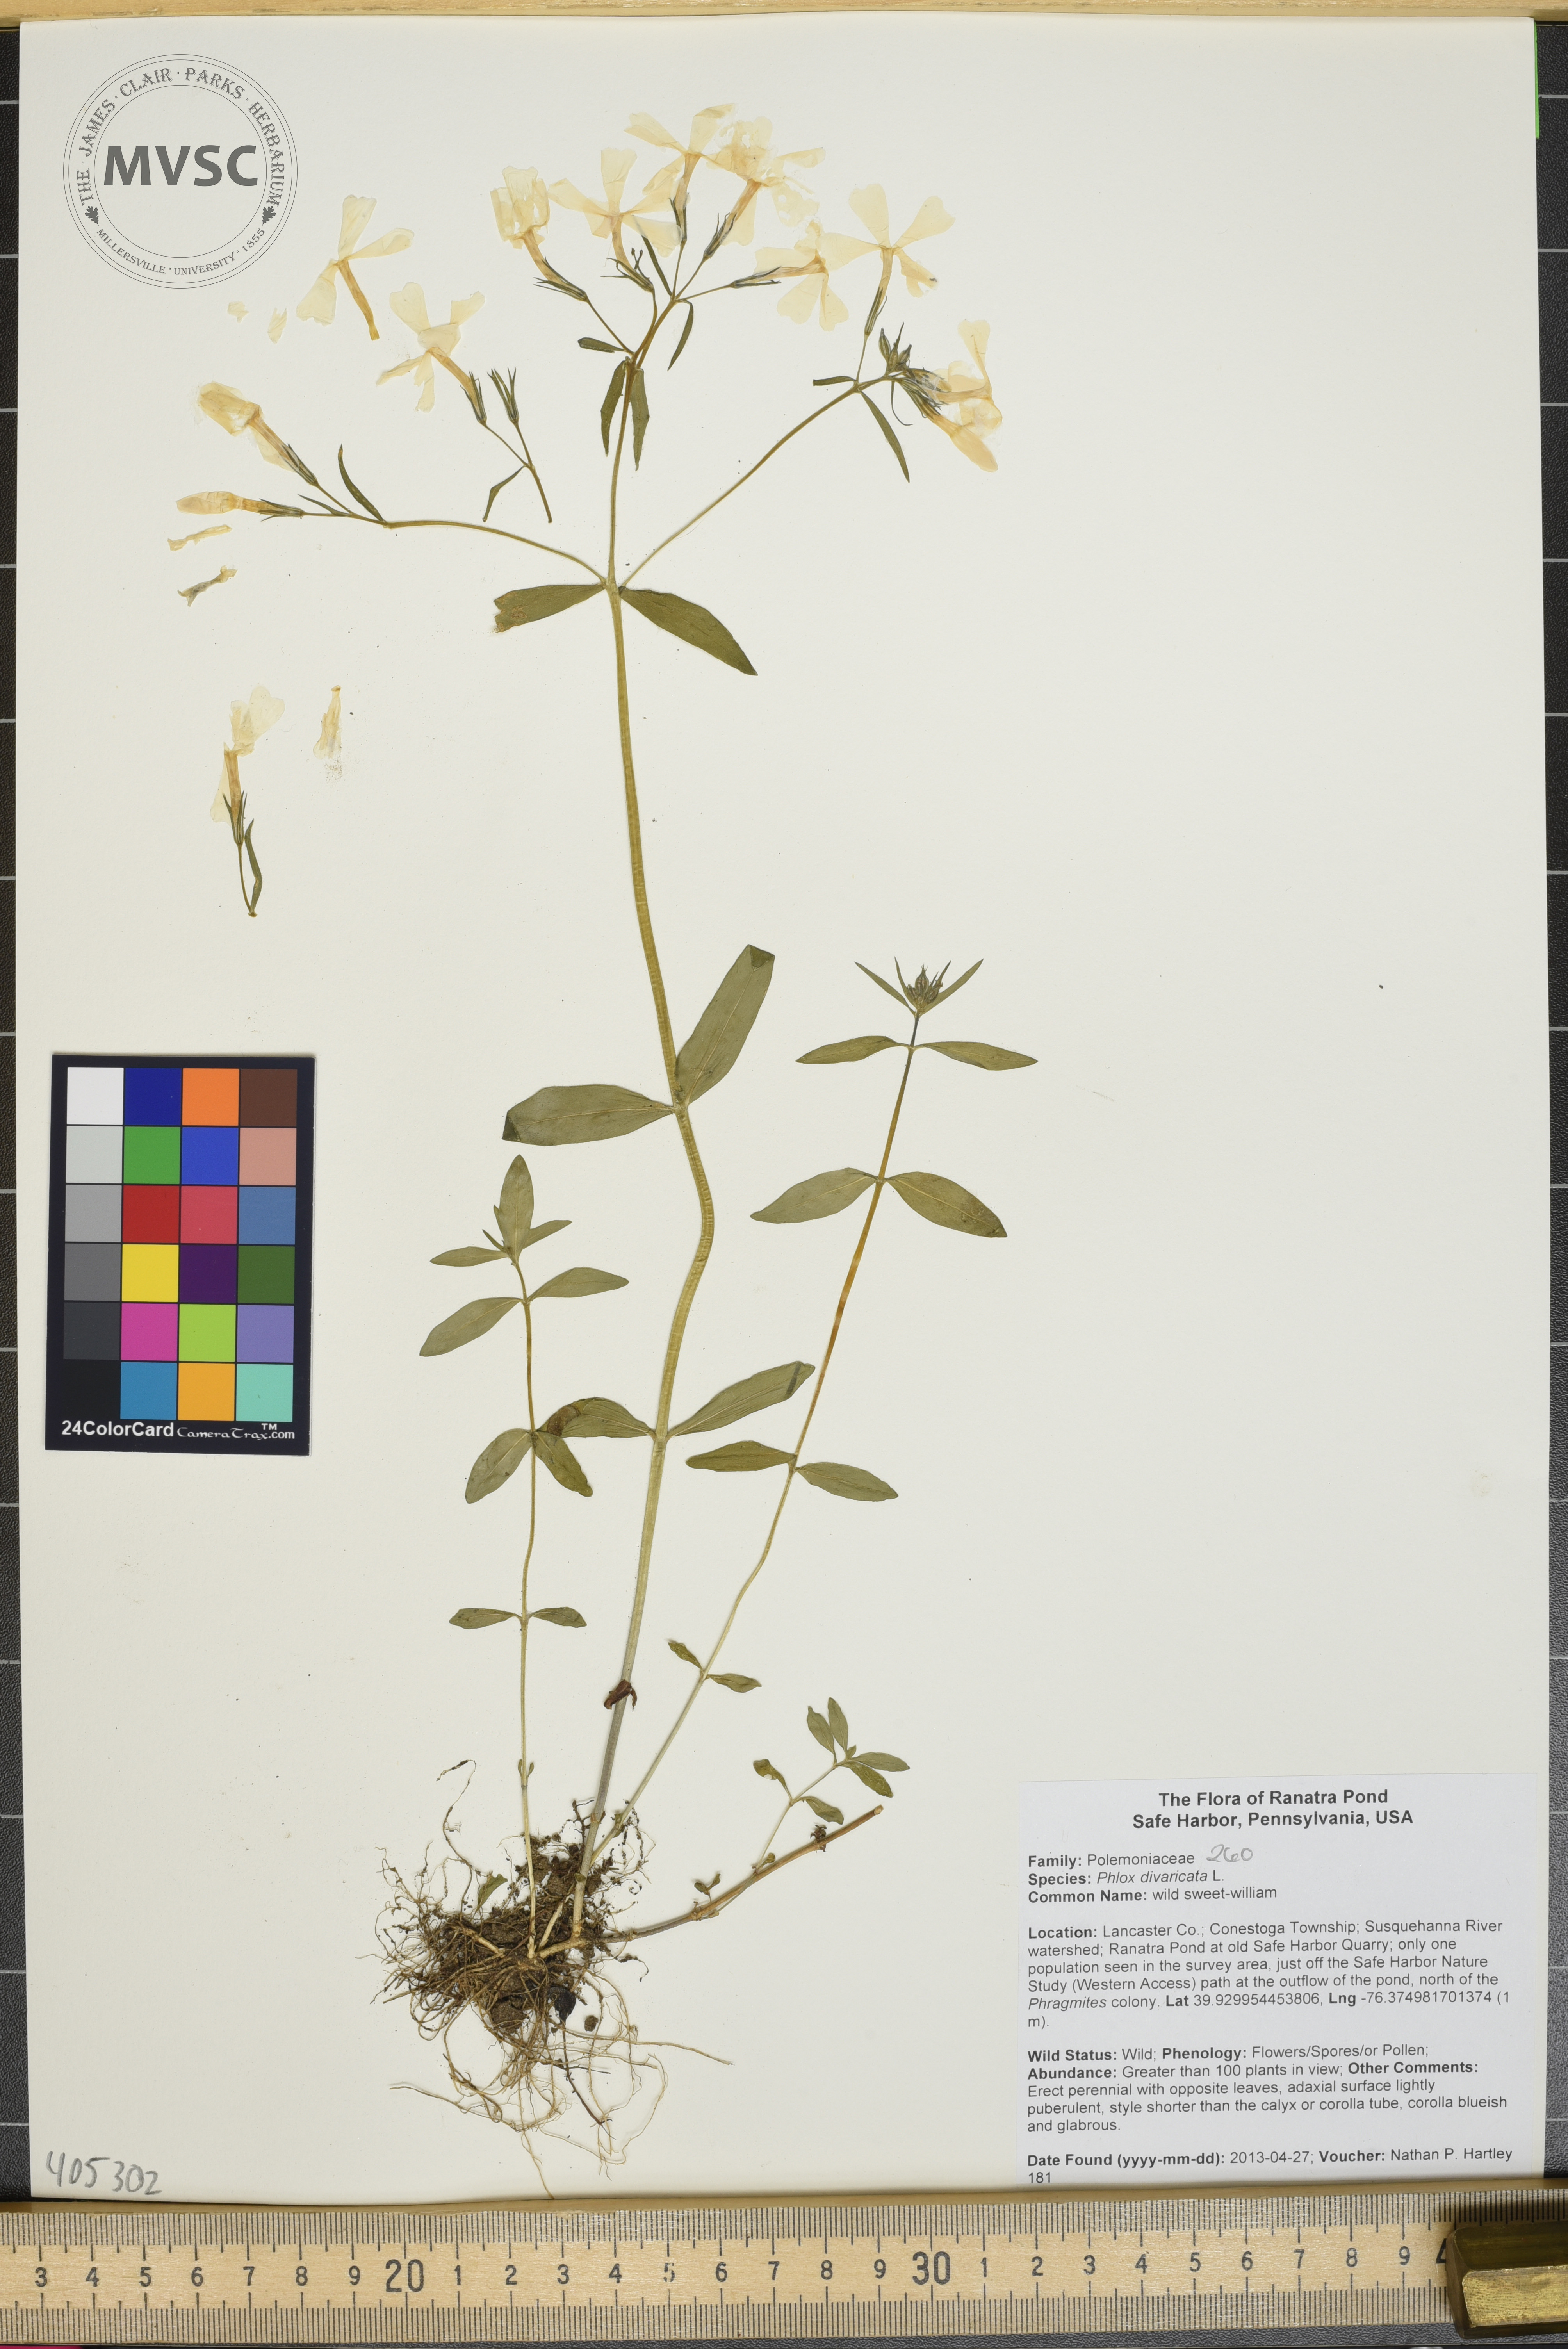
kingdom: Plantae
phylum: Tracheophyta
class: Magnoliopsida
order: Ericales
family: Polemoniaceae
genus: Phlox
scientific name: Phlox divaricata
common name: wild sweet-william
